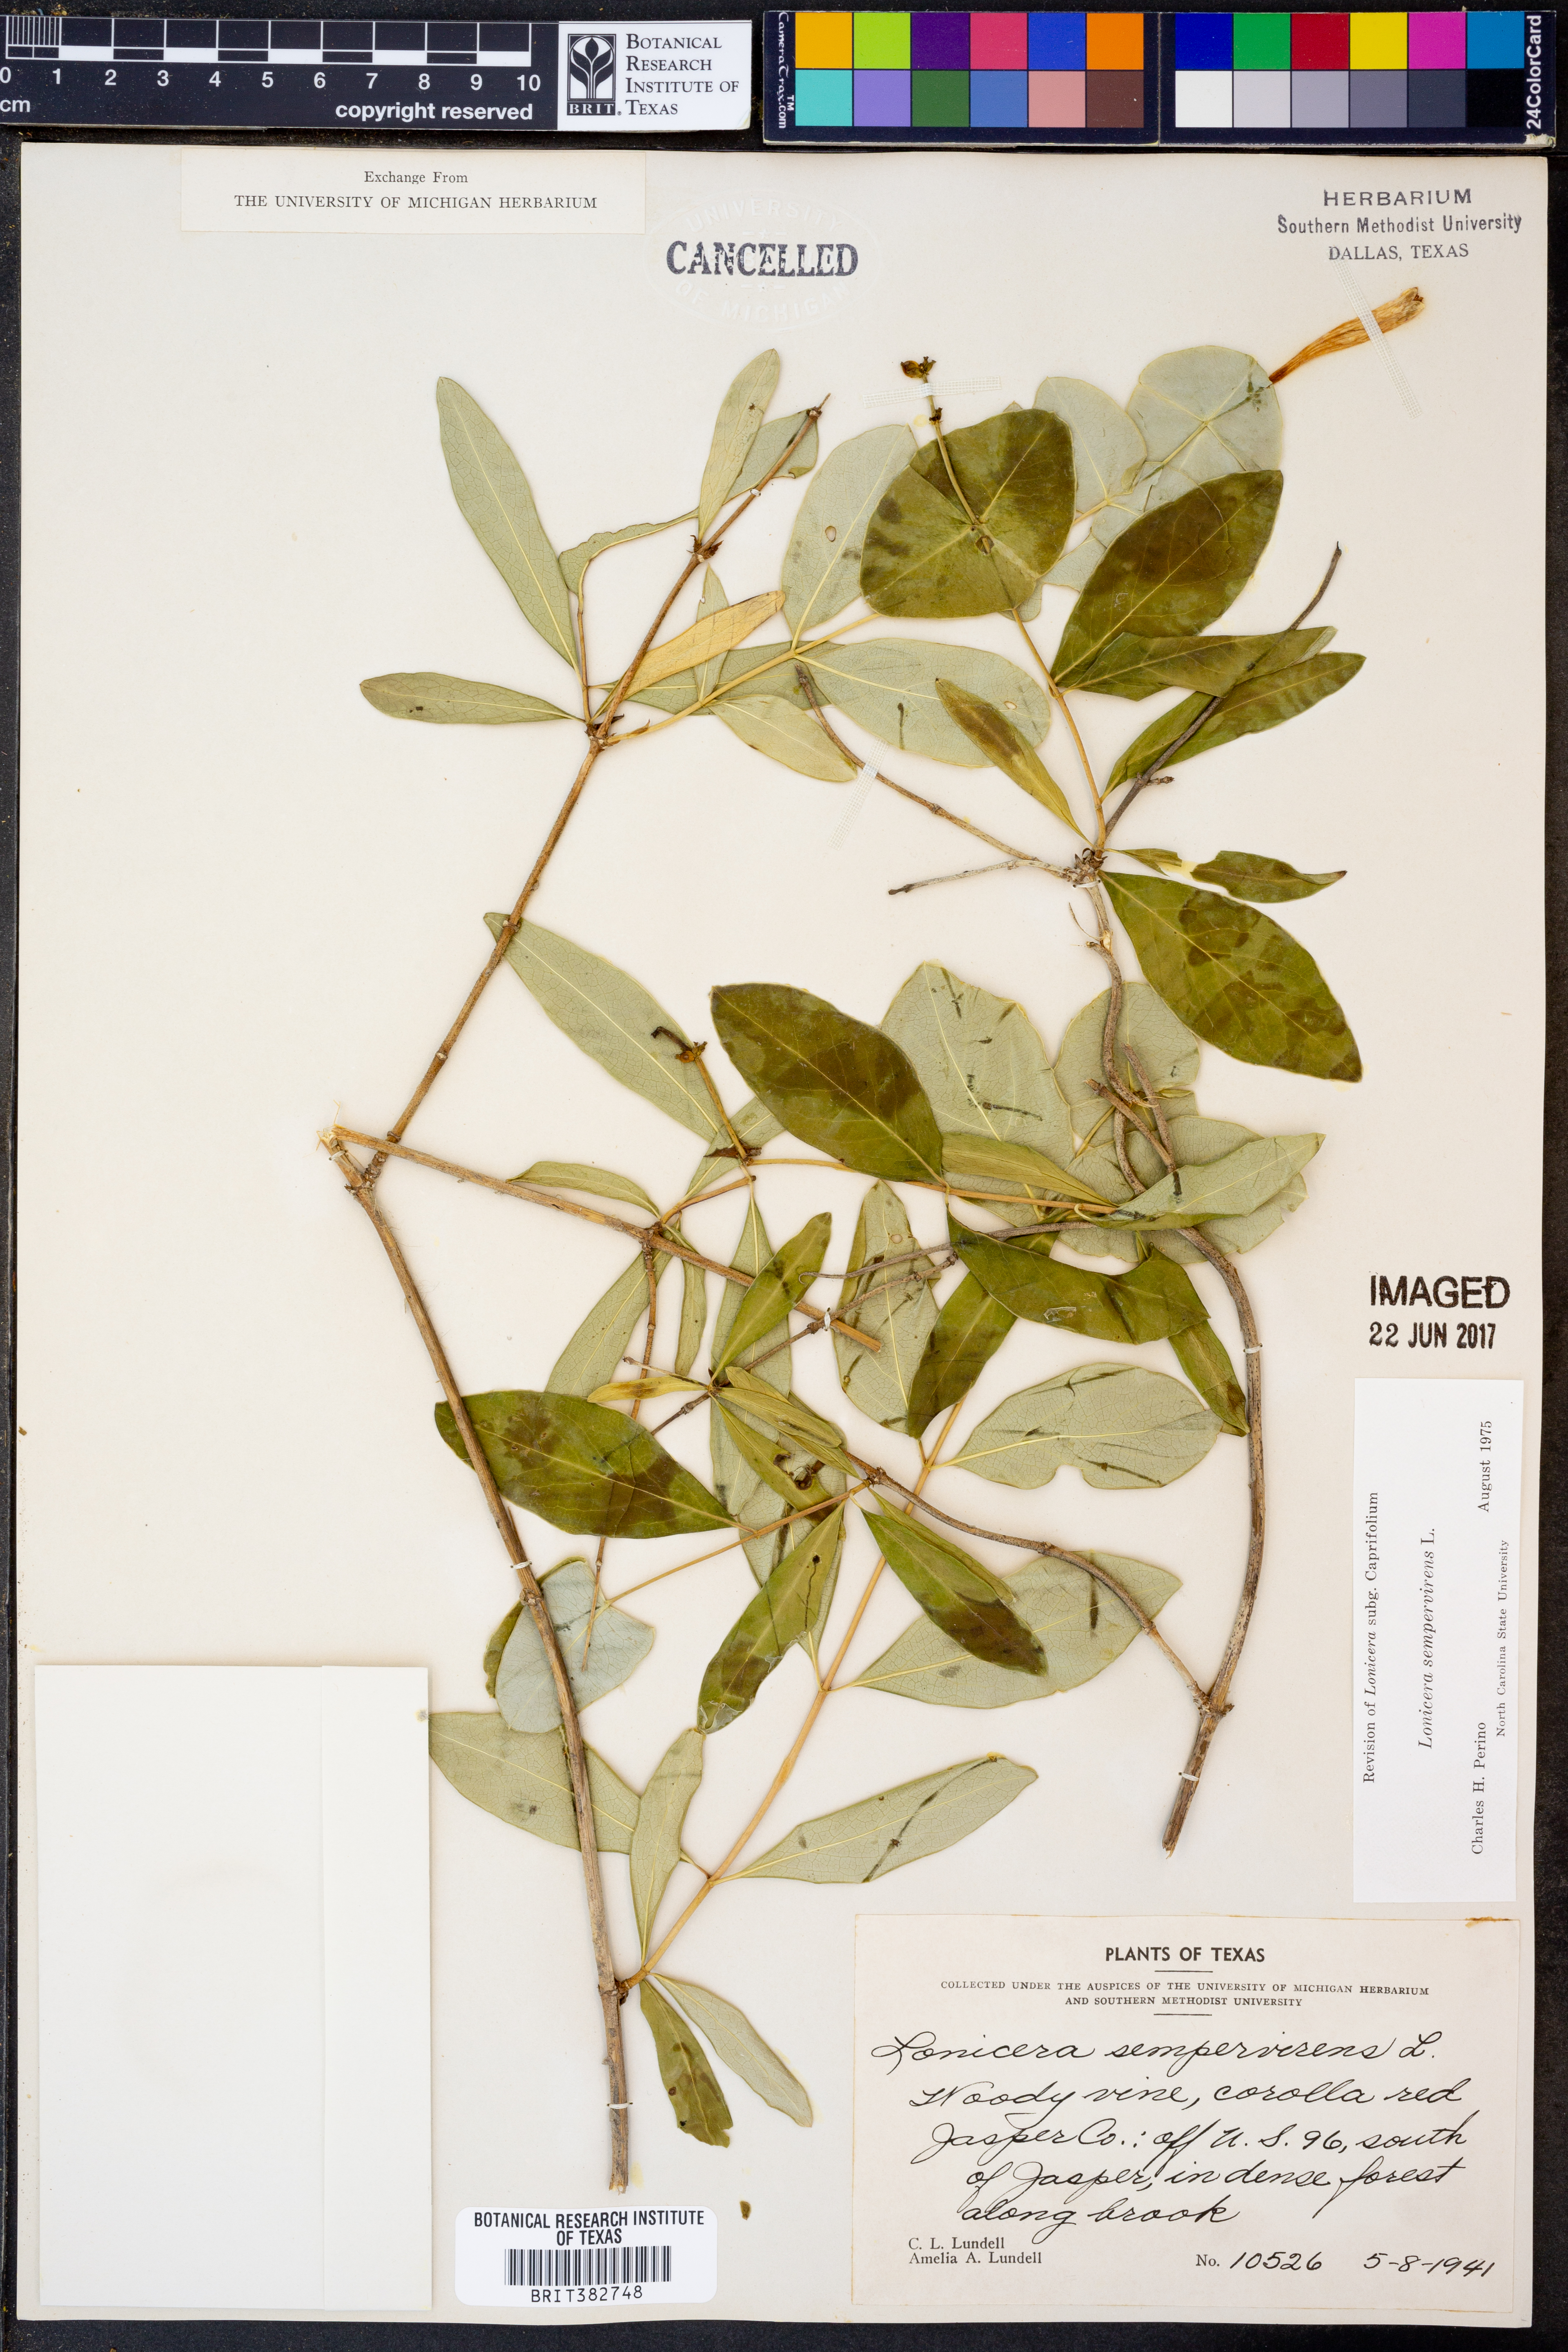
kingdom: Plantae
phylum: Tracheophyta
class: Magnoliopsida
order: Dipsacales
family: Caprifoliaceae
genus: Lonicera
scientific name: Lonicera sempervirens
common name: Coral honeysuckle
